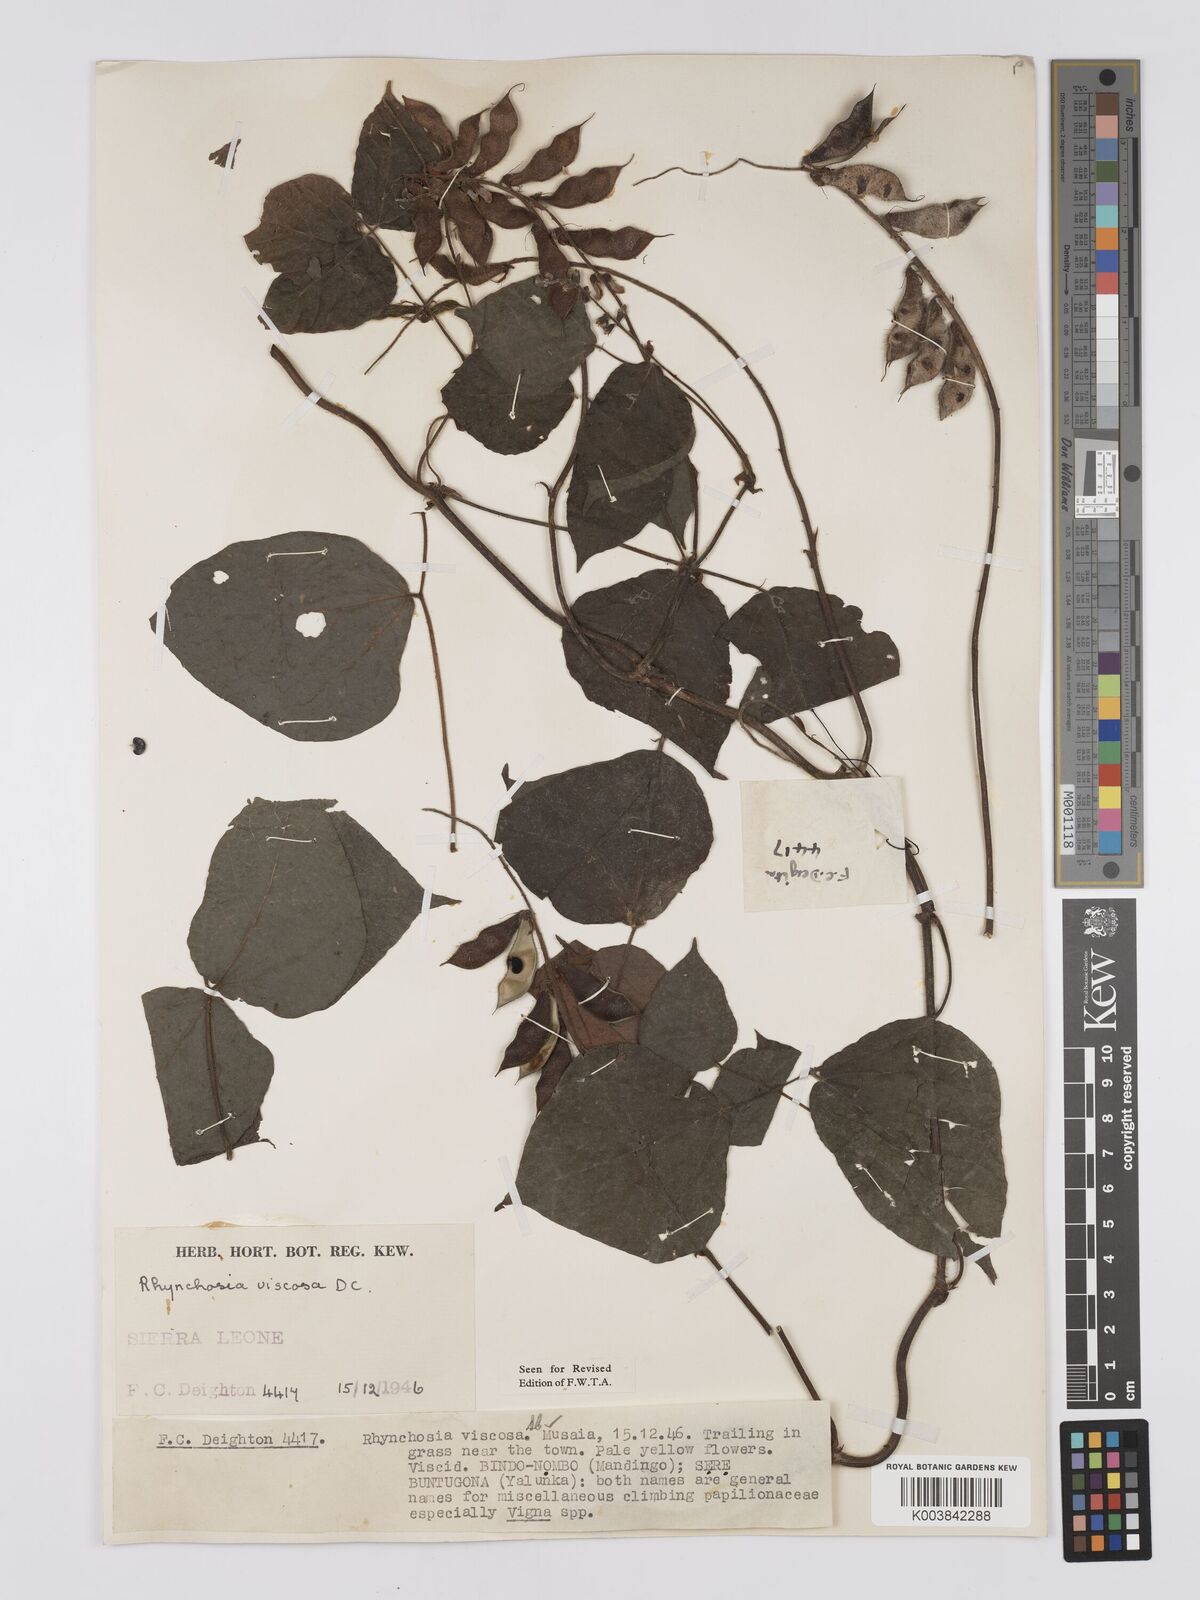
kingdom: Plantae
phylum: Tracheophyta
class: Magnoliopsida
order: Fabales
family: Fabaceae
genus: Rhynchosia
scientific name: Rhynchosia viscosa
